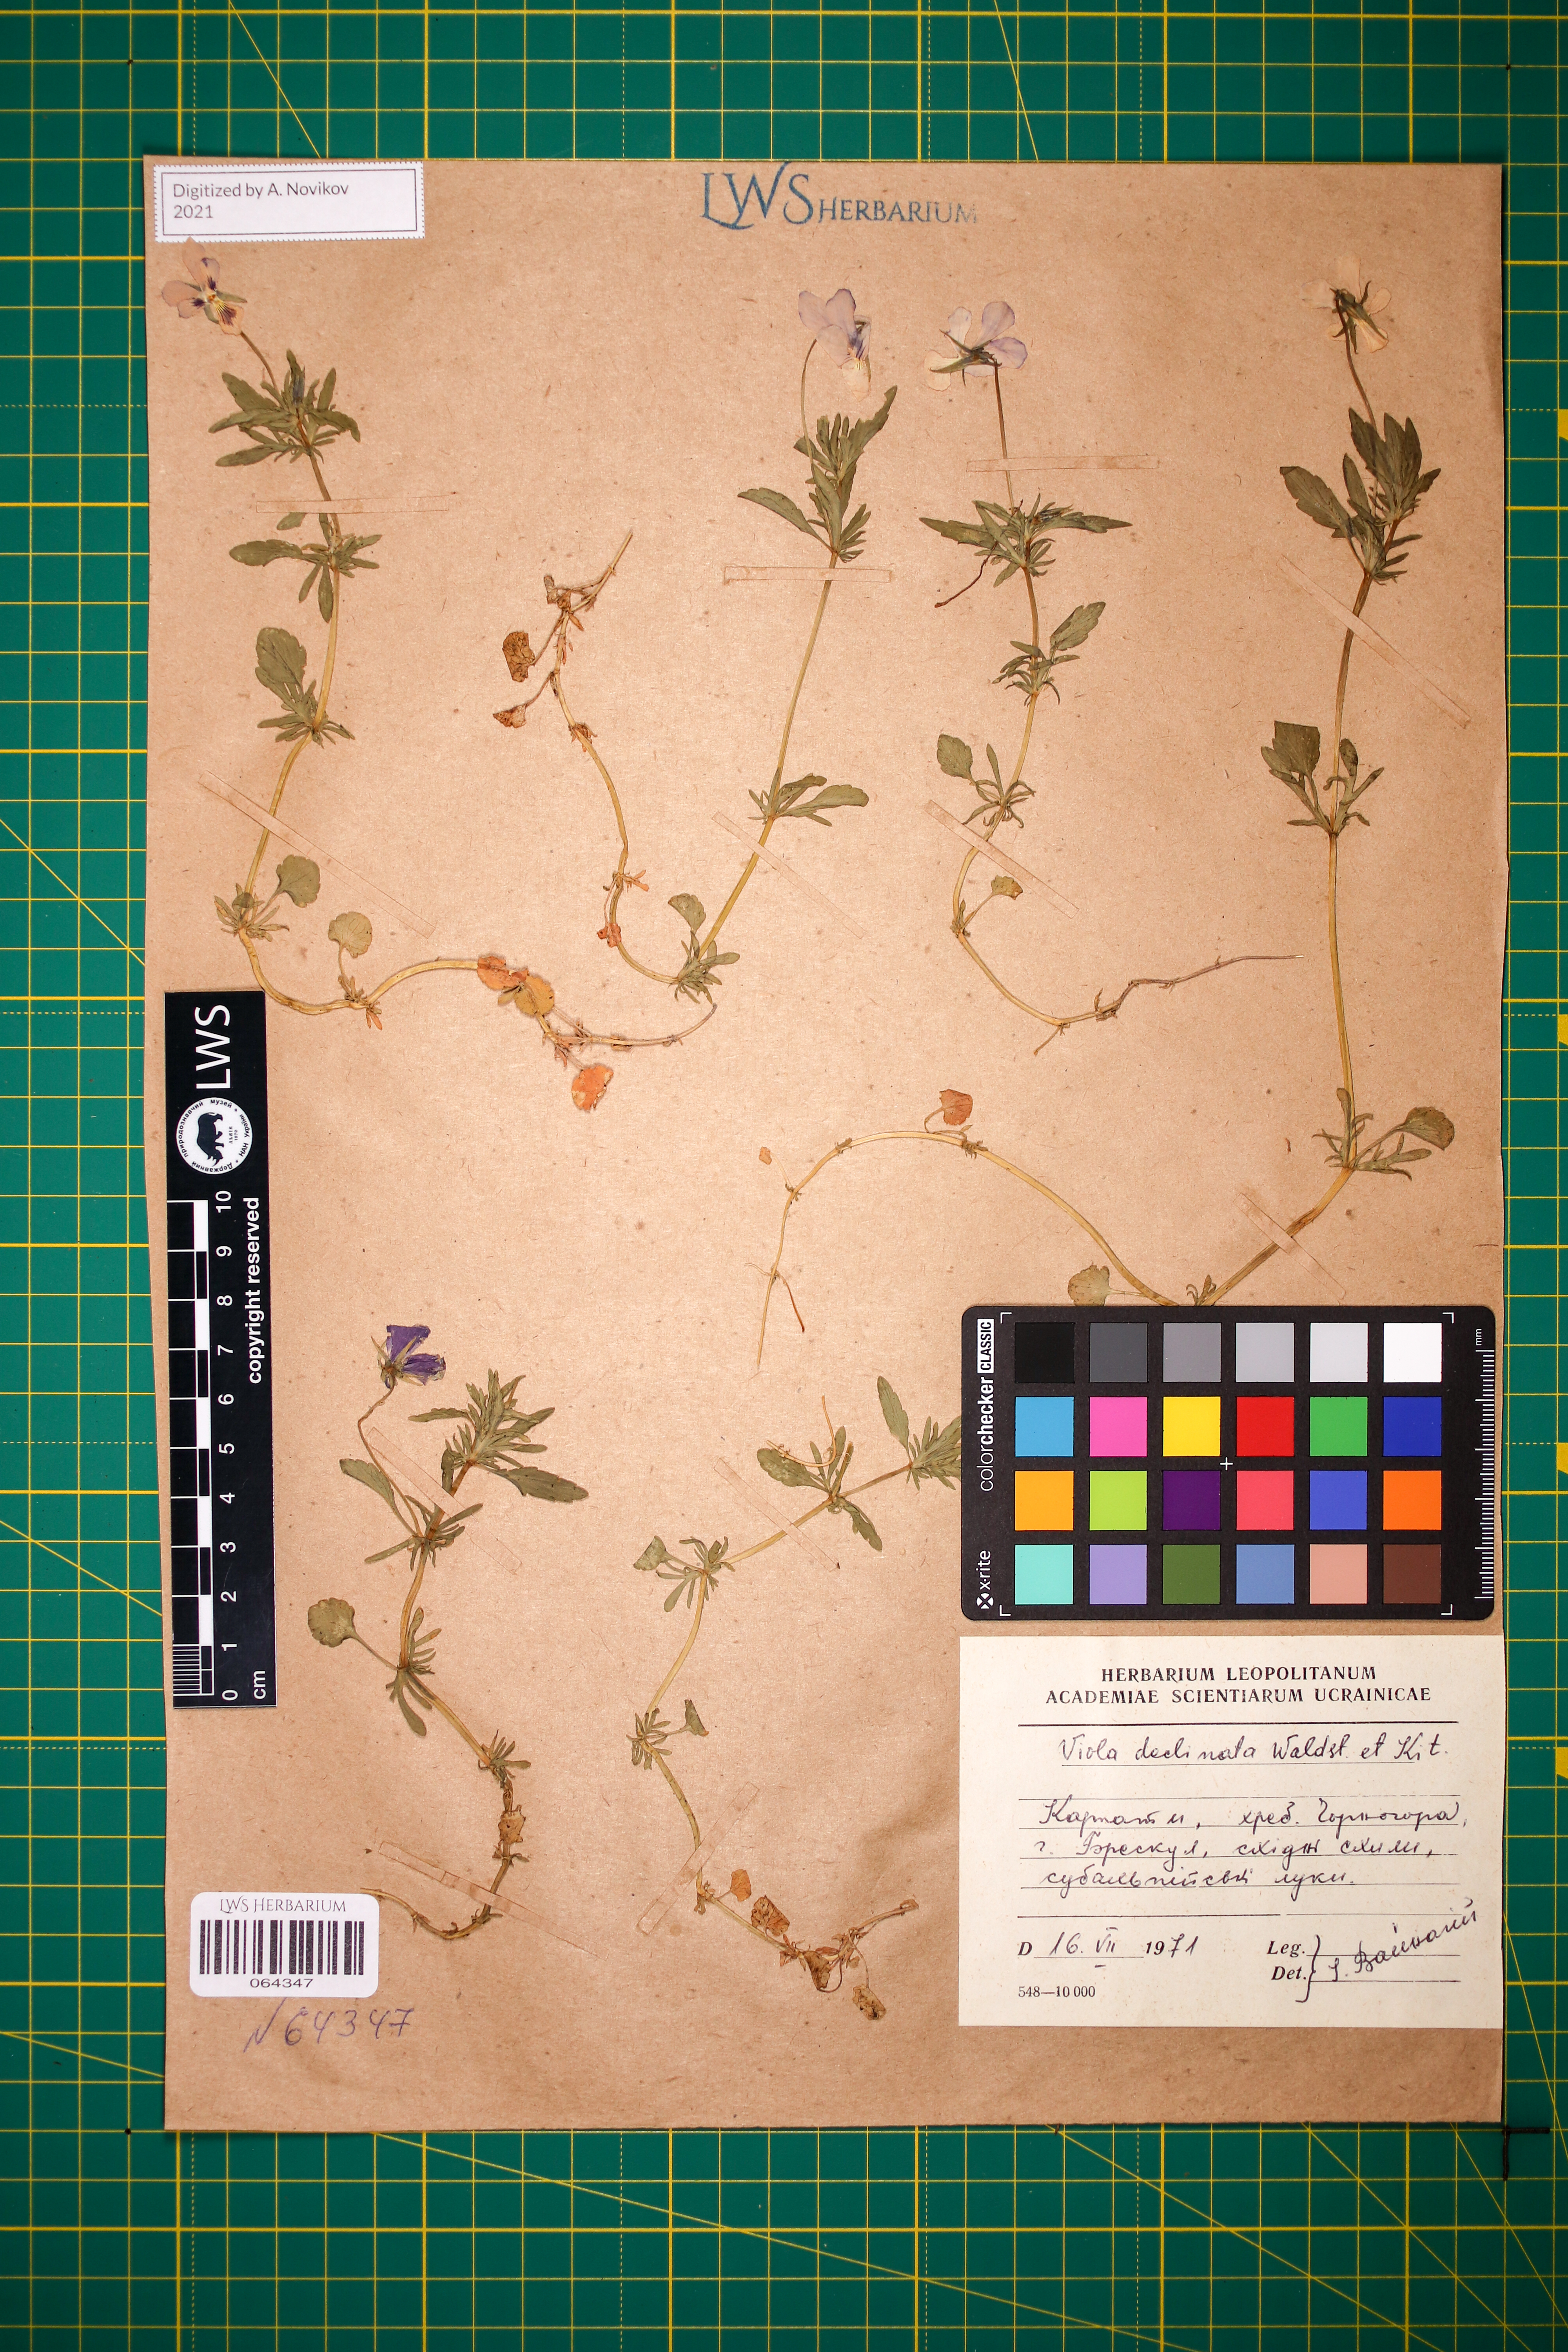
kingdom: Plantae
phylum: Tracheophyta
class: Magnoliopsida
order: Malpighiales
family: Violaceae
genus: Viola
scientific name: Viola declinata
